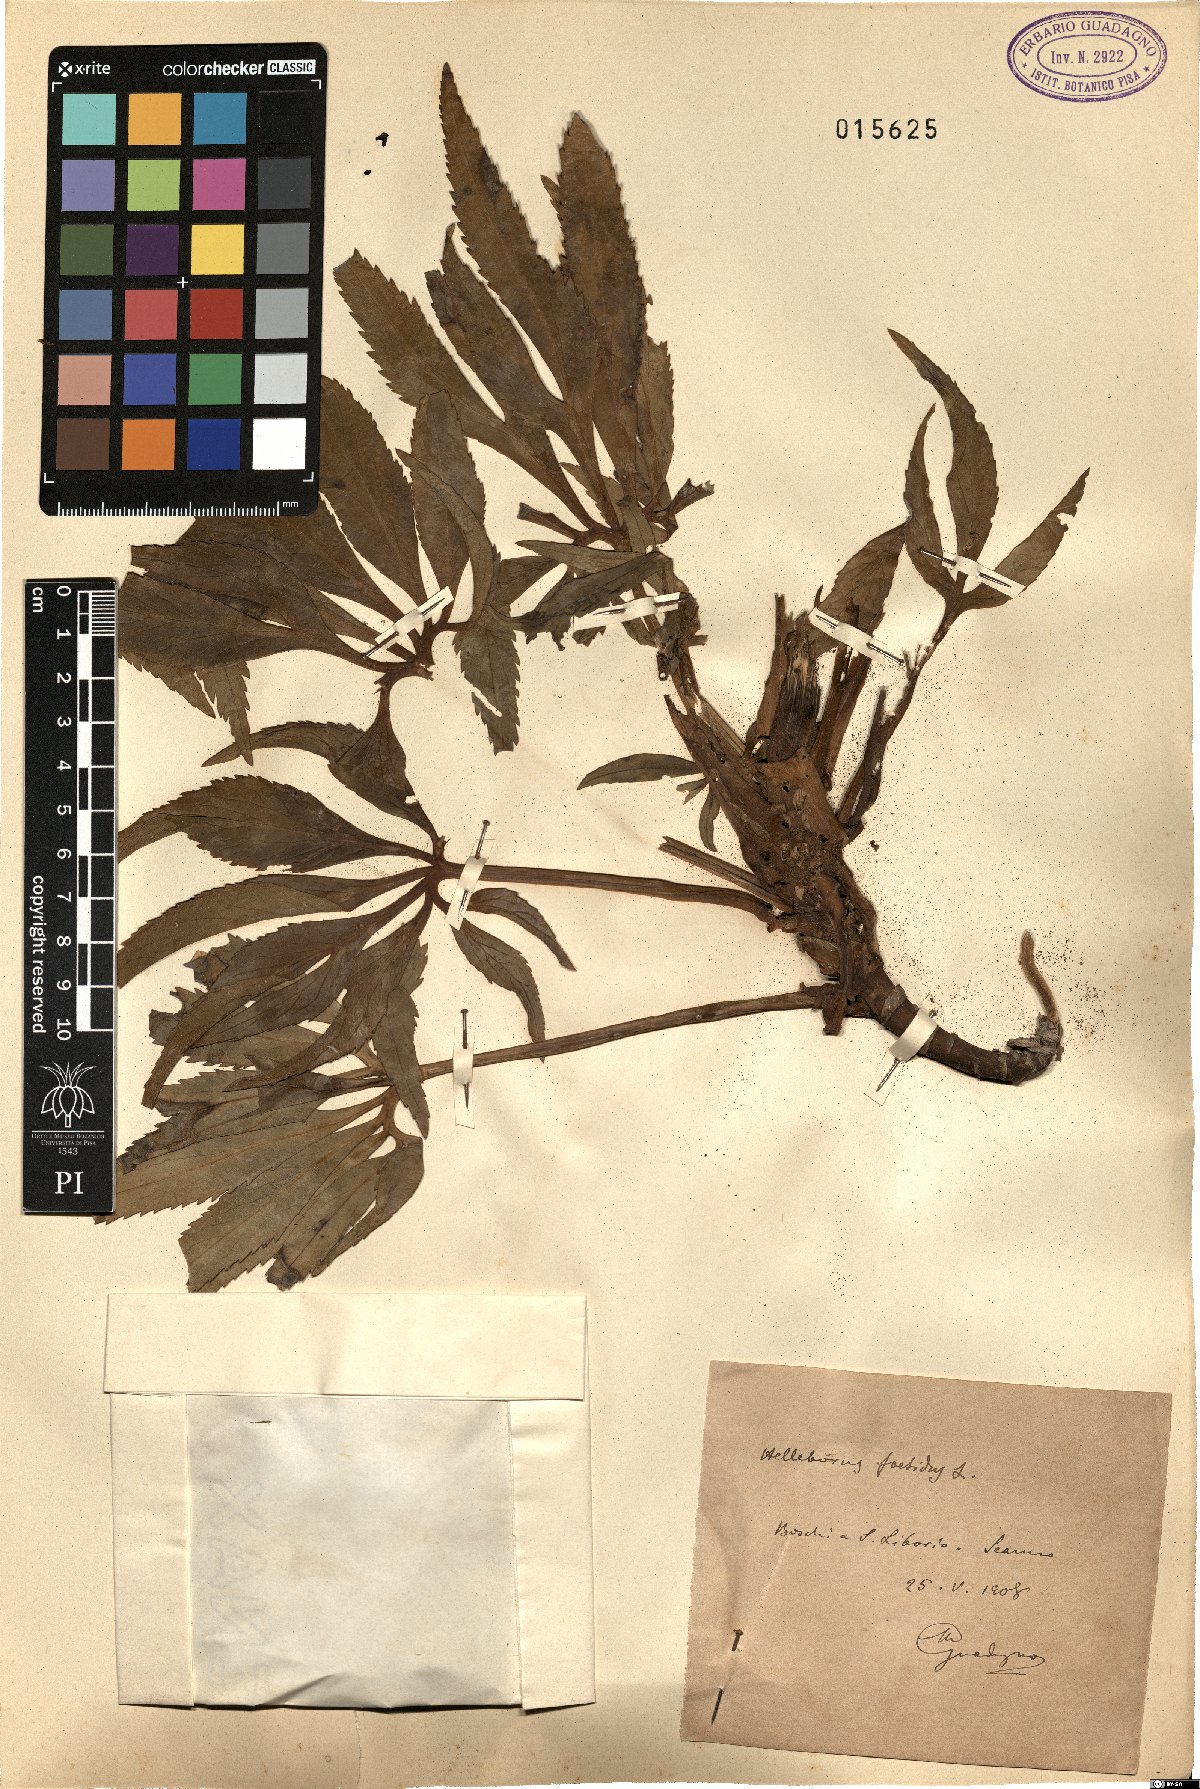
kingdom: Plantae
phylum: Tracheophyta
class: Magnoliopsida
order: Ranunculales
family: Ranunculaceae
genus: Helleborus
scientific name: Helleborus foetidus
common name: Stinking hellebore
